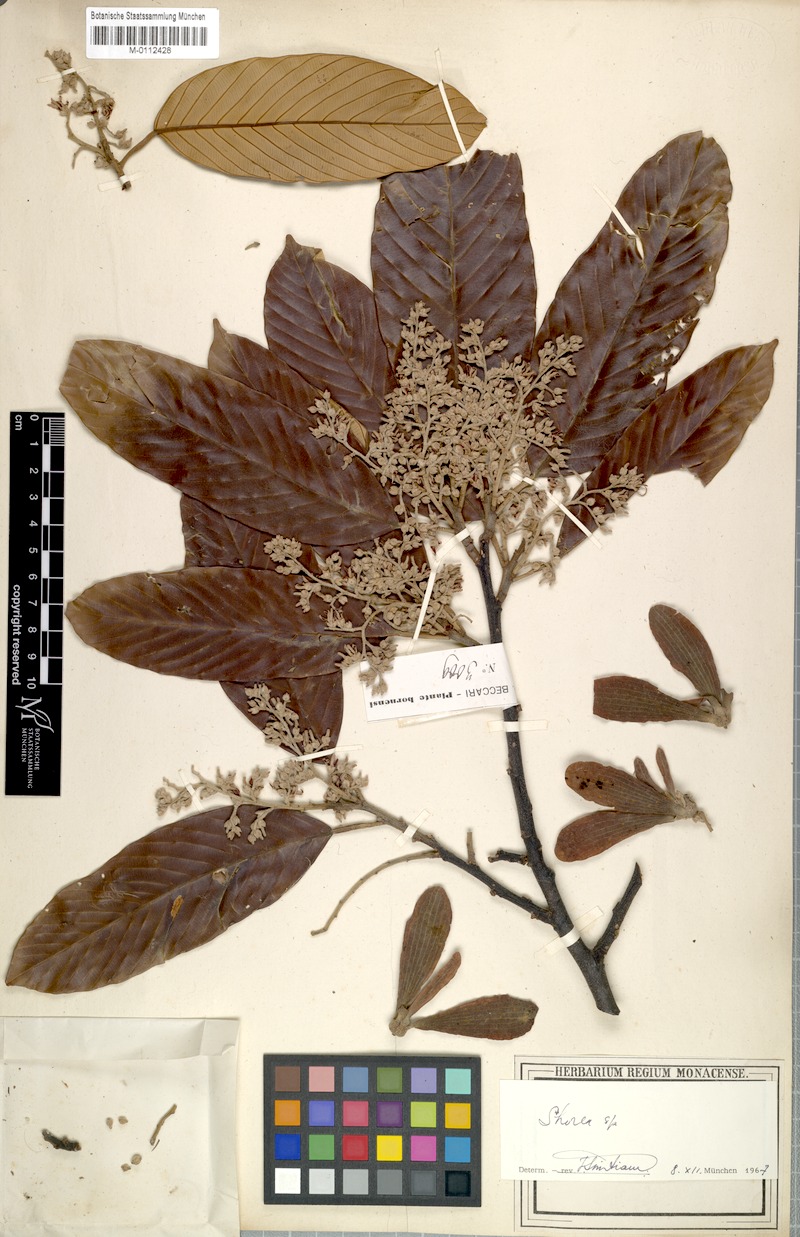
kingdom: Plantae
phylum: Tracheophyta
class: Magnoliopsida
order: Malvales
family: Dipterocarpaceae
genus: Shorea
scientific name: Shorea inappendiculata
